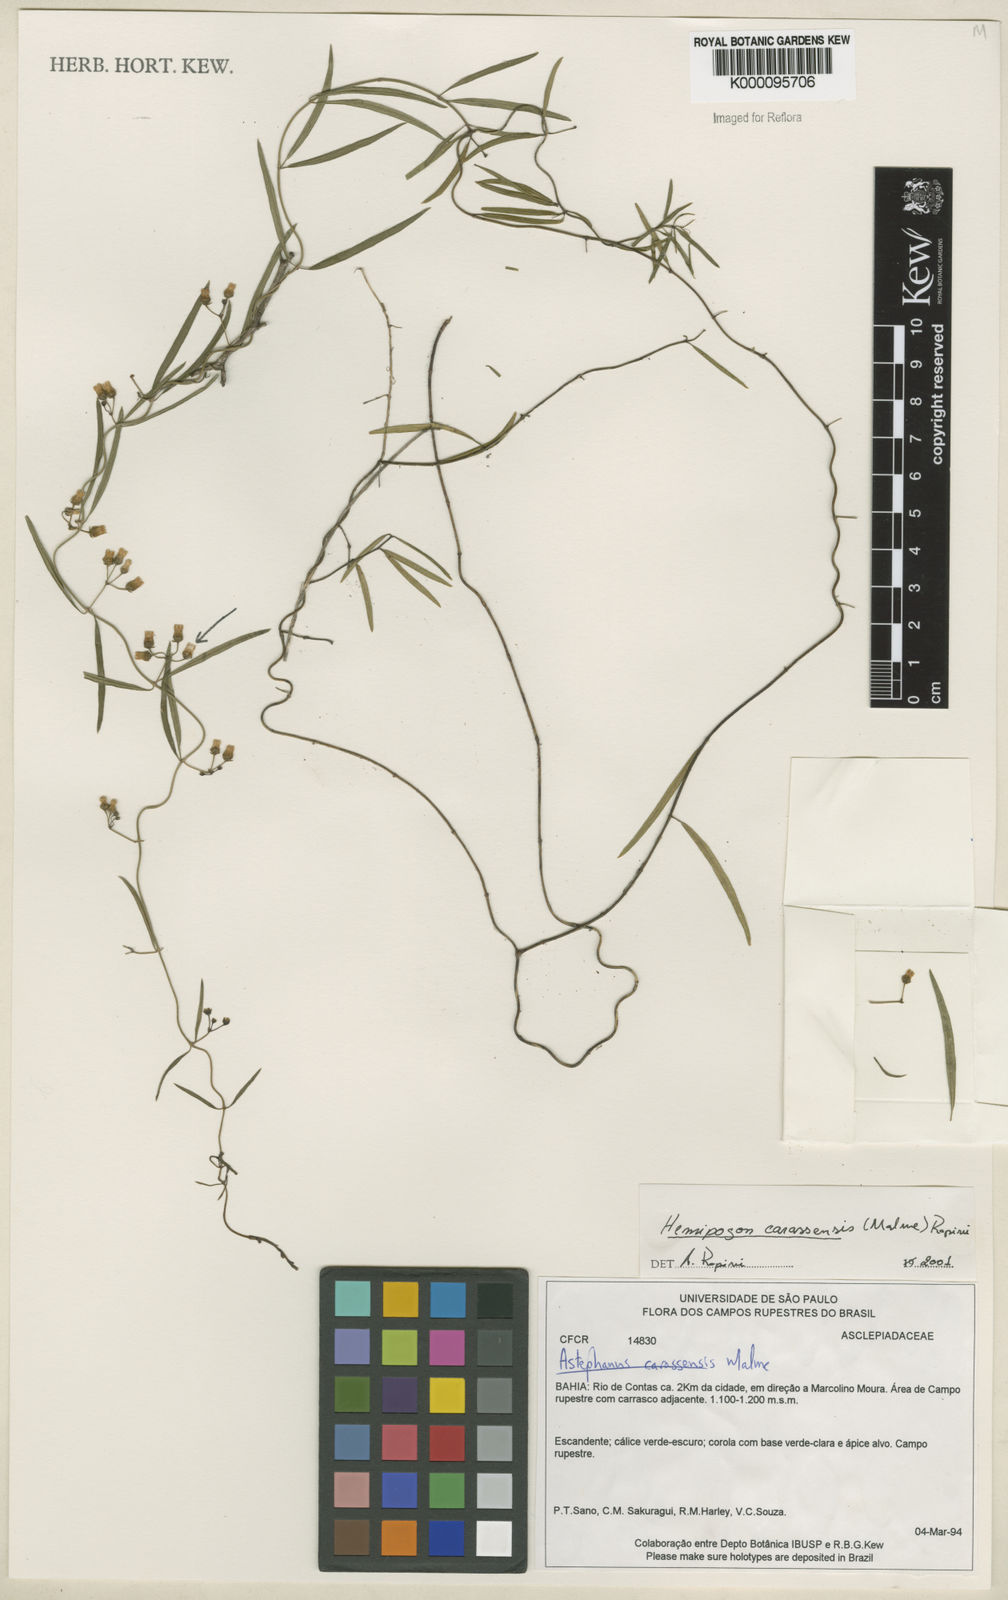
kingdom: Plantae
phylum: Tracheophyta
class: Magnoliopsida
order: Gentianales
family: Apocynaceae
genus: Morilloa
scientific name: Morilloa carassensis
